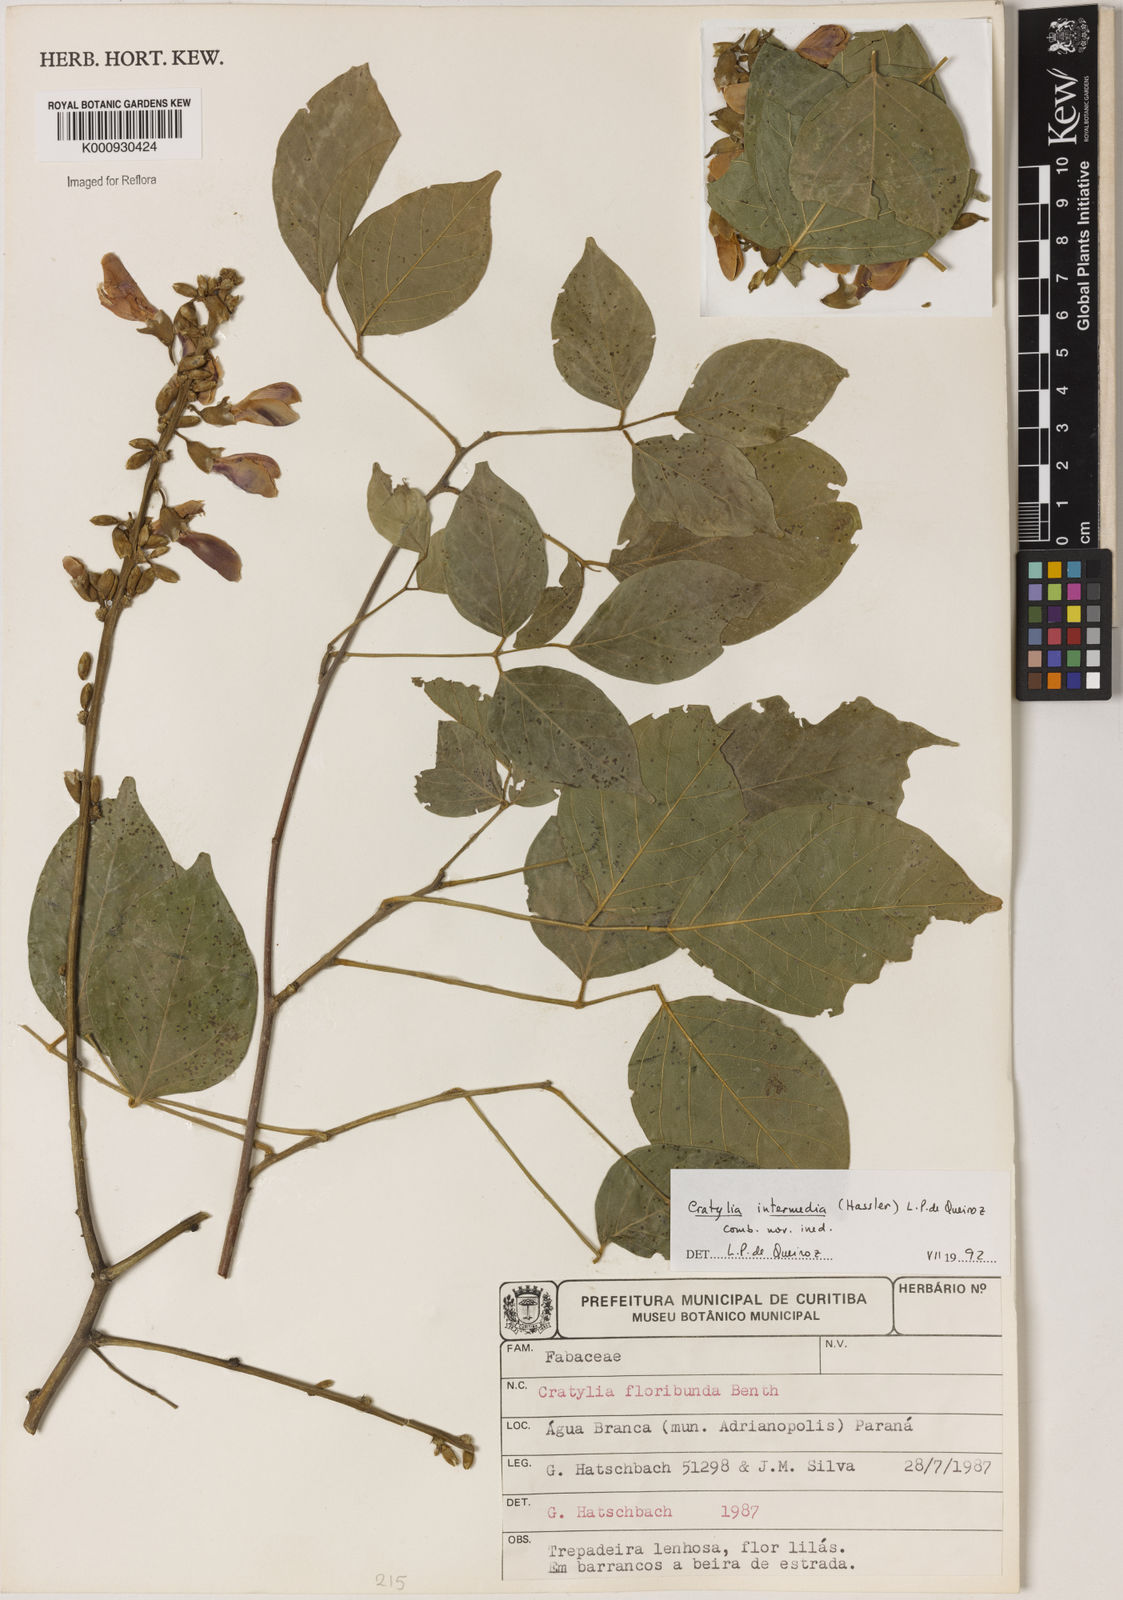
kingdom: Plantae
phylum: Tracheophyta
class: Magnoliopsida
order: Fabales
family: Fabaceae
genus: Cratylia
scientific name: Cratylia intermedia
